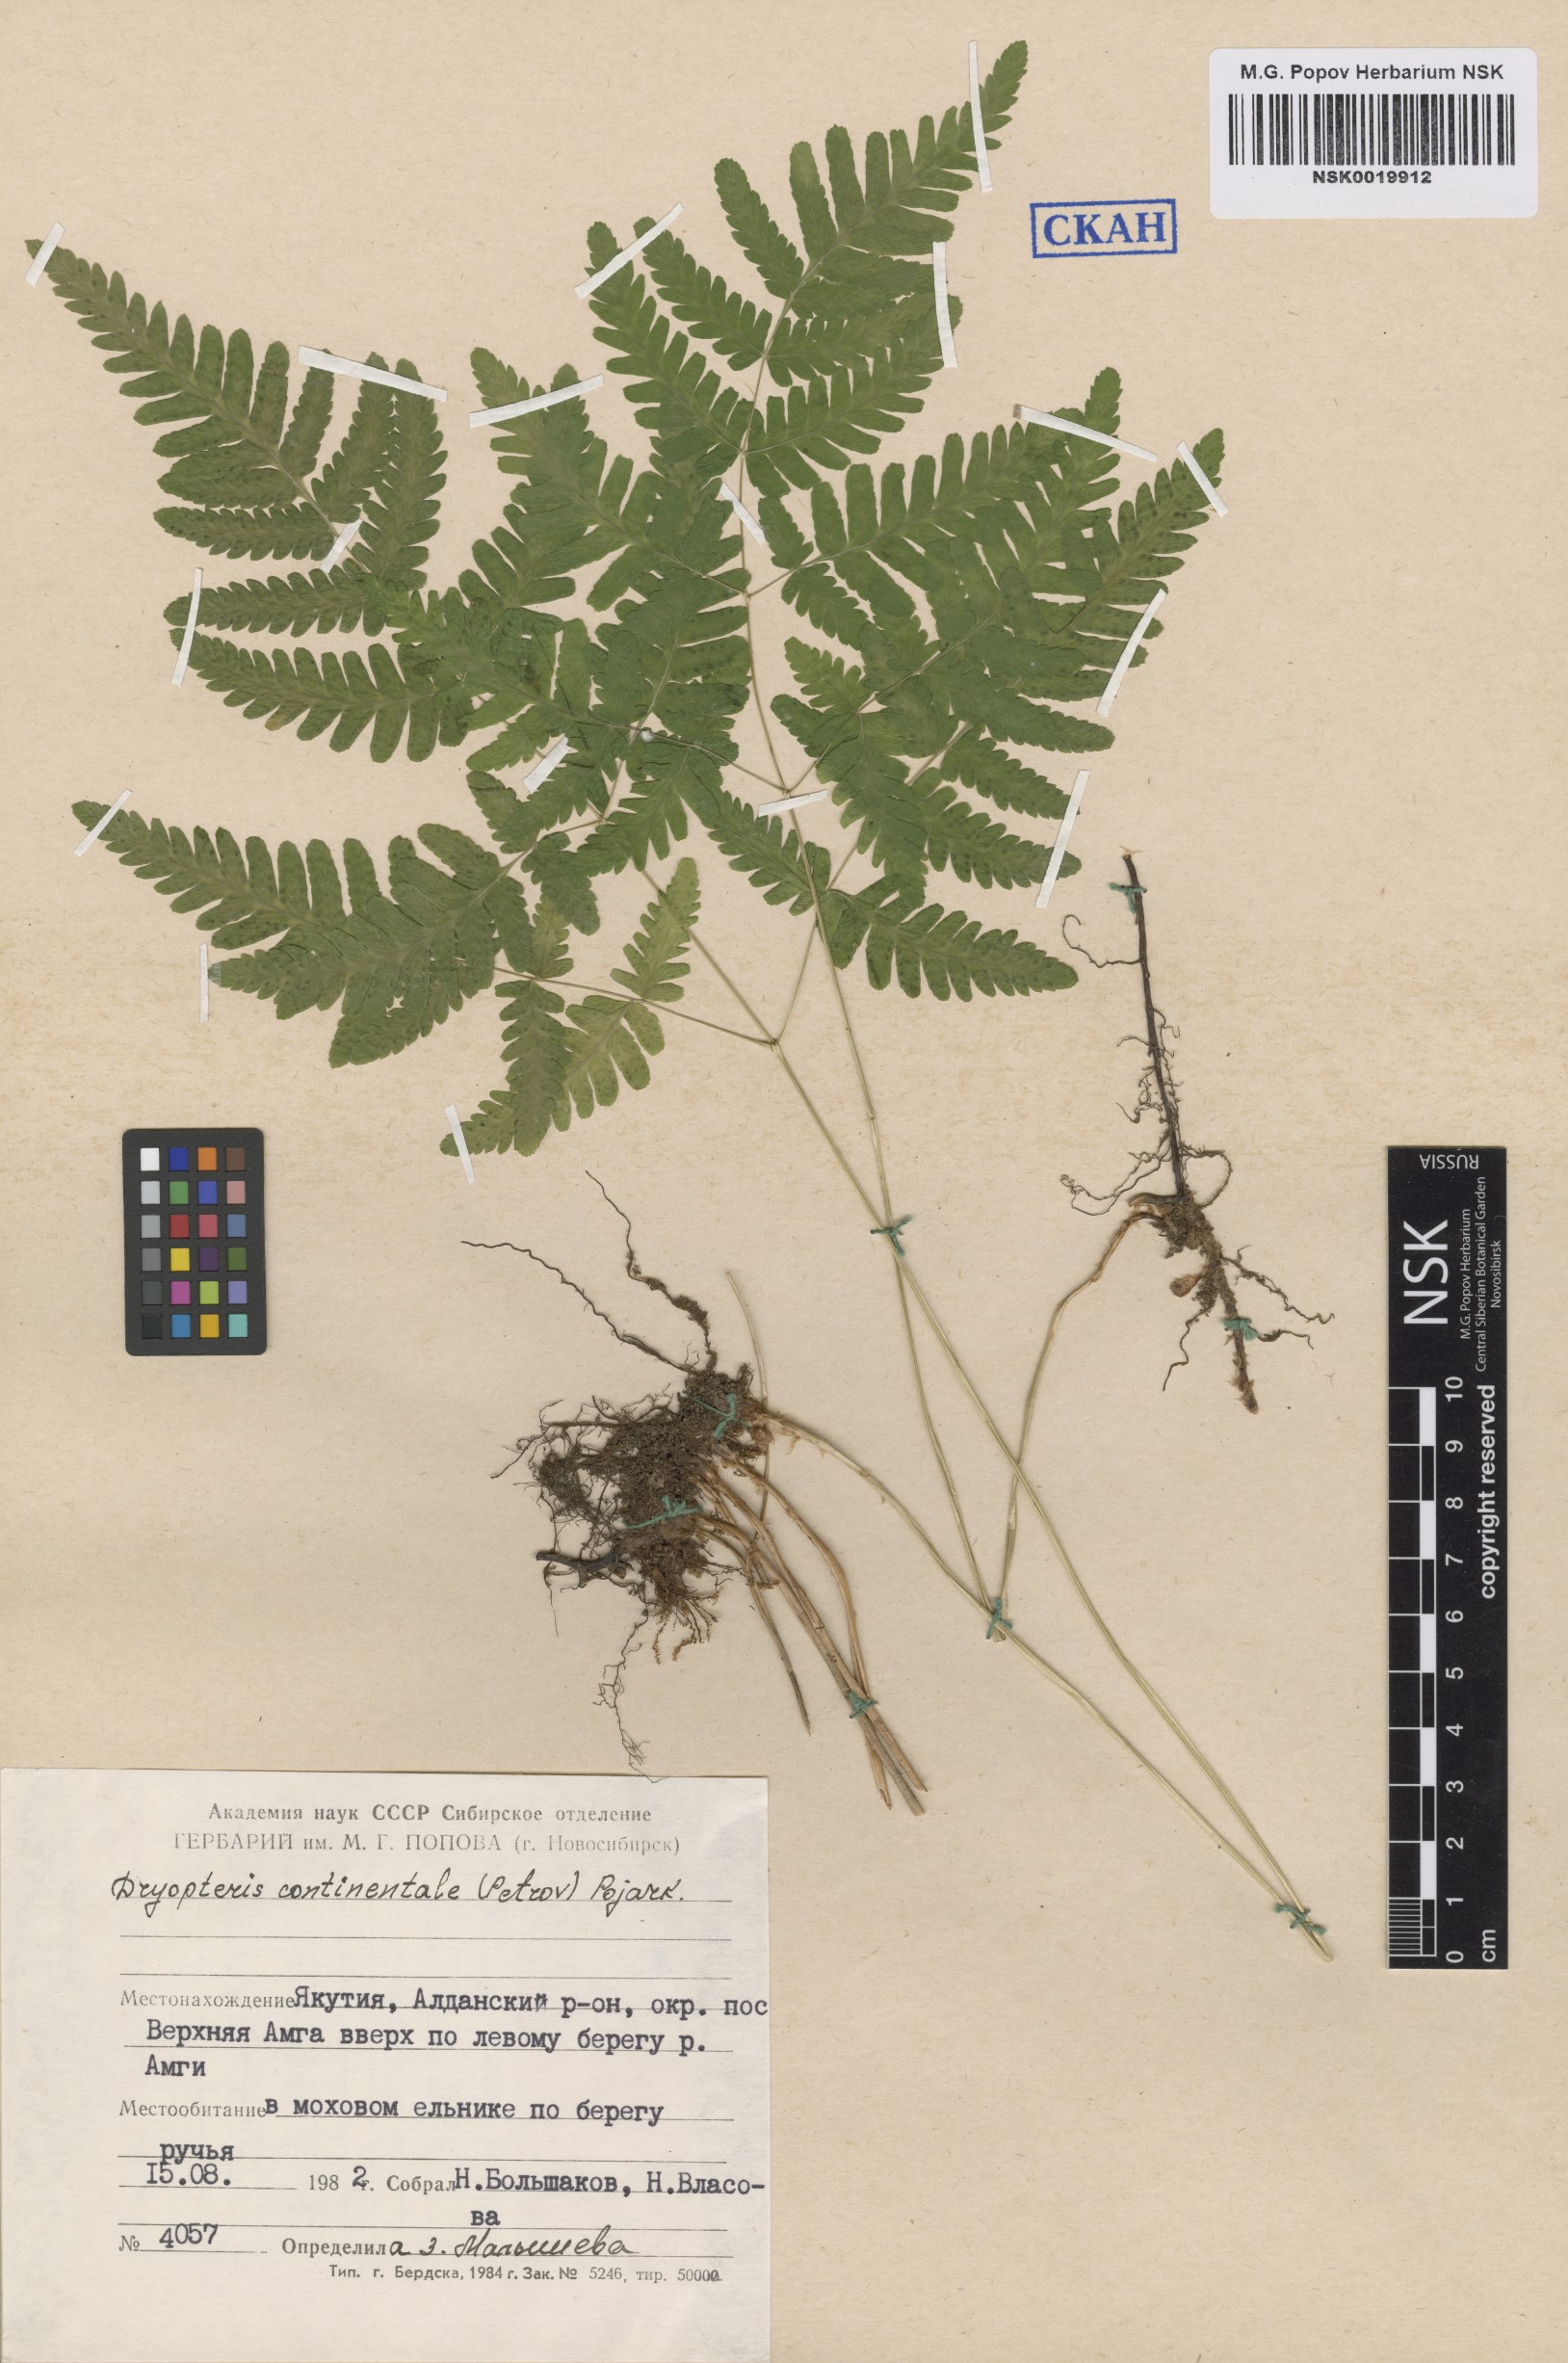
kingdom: Plantae
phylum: Tracheophyta
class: Polypodiopsida
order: Polypodiales
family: Cystopteridaceae
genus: Gymnocarpium
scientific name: Gymnocarpium continentale
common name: Asian oak fern
